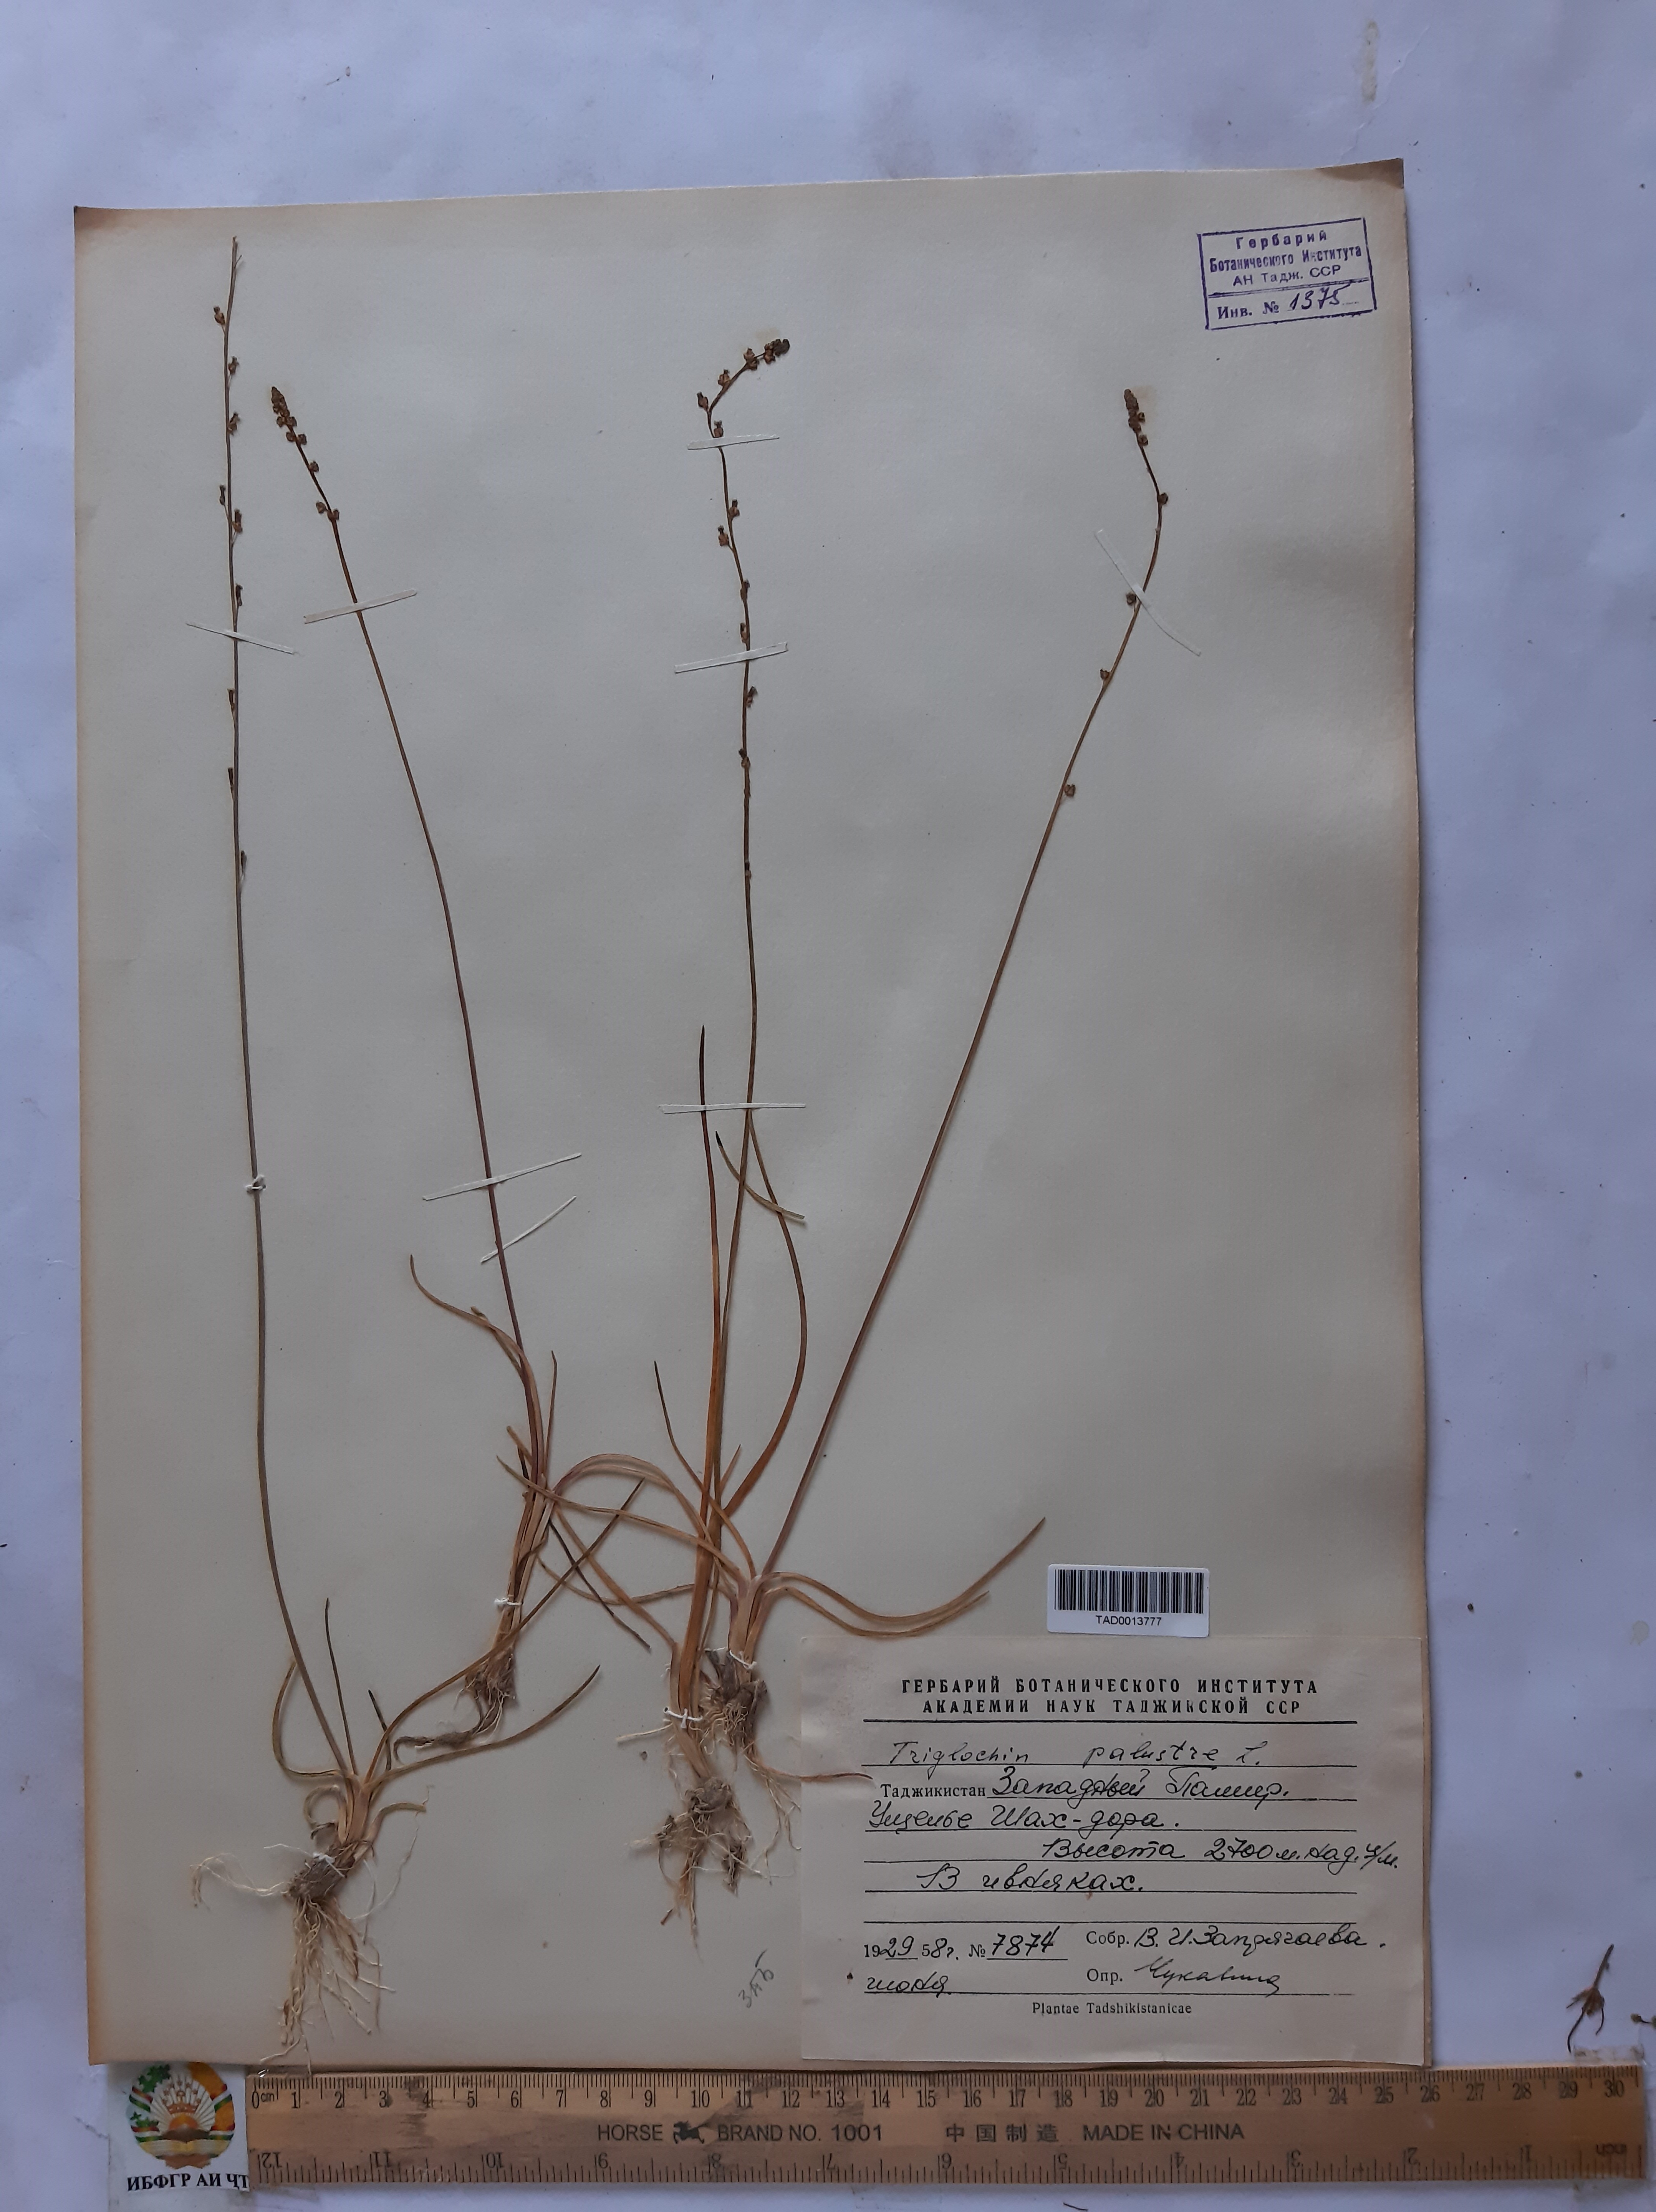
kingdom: Plantae
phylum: Tracheophyta
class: Liliopsida
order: Alismatales
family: Juncaginaceae
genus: Triglochin
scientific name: Triglochin palustris
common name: Marsh arrowgrass
